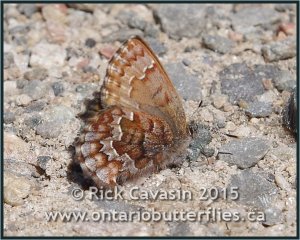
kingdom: Animalia
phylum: Arthropoda
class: Insecta
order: Lepidoptera
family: Lycaenidae
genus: Incisalia
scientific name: Incisalia niphon
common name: Eastern Pine Elfin
